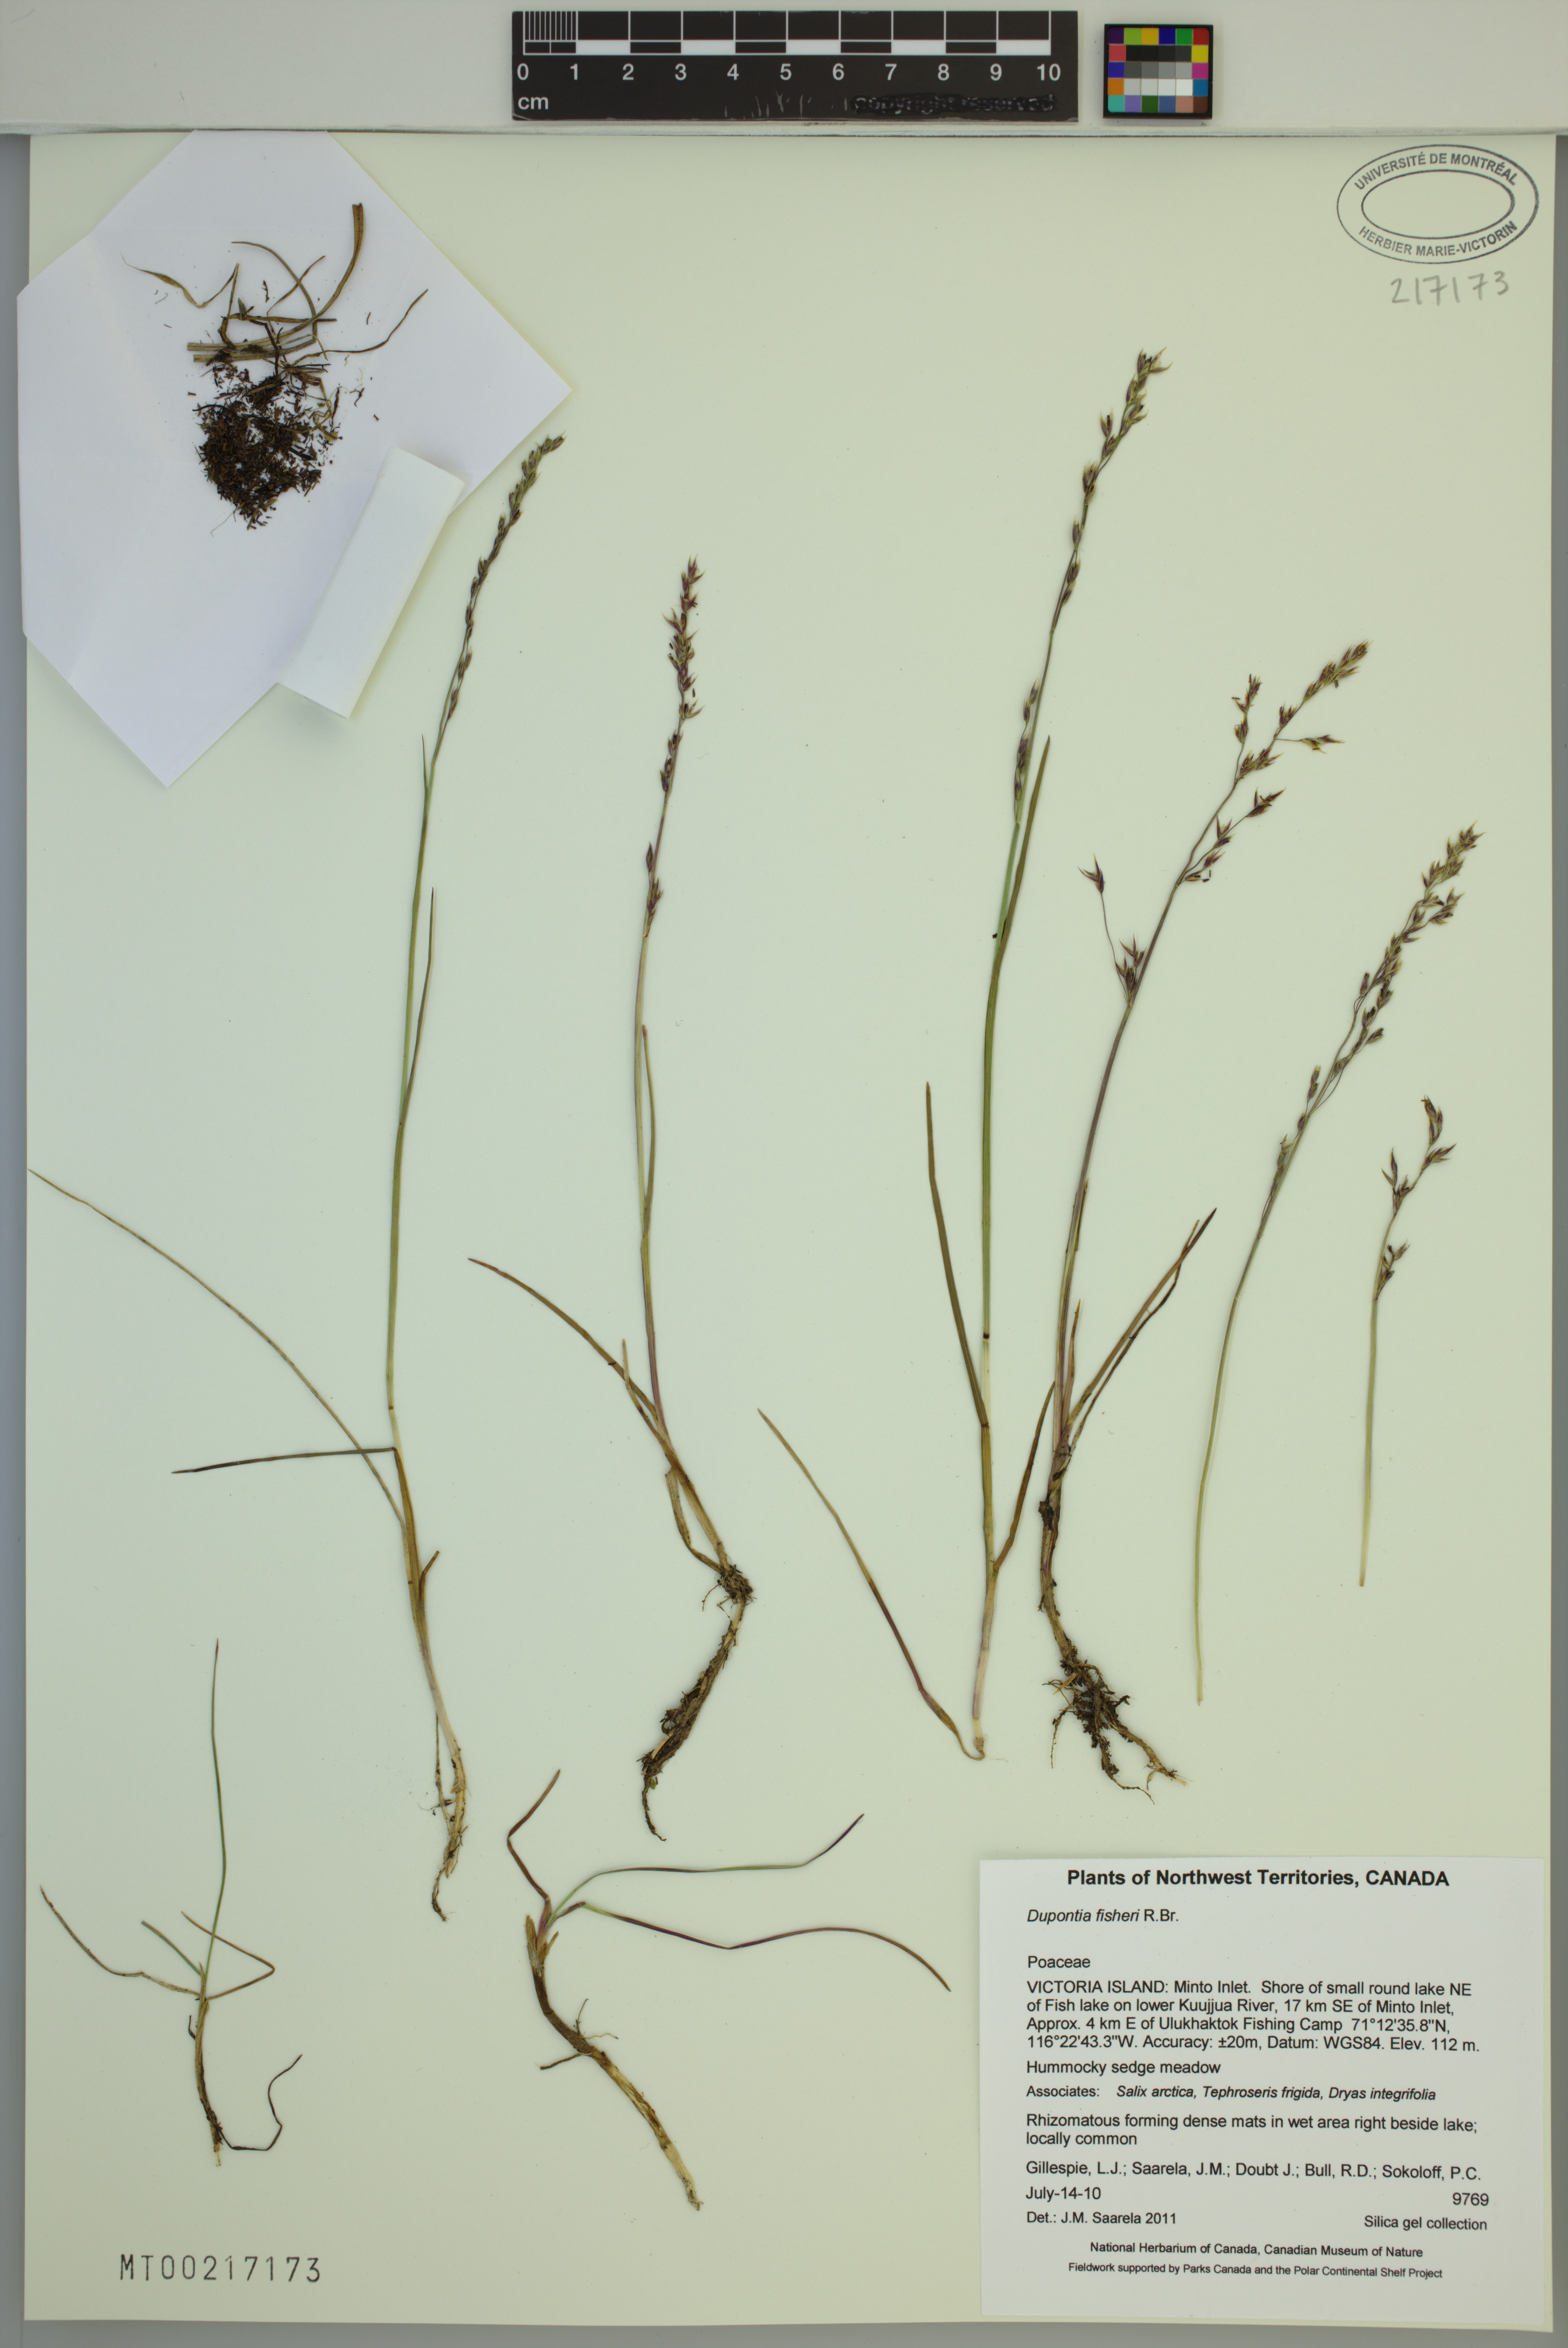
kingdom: Plantae
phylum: Tracheophyta
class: Liliopsida
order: Poales
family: Poaceae
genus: Dupontia
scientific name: Dupontia fisheri
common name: Tundra grass
